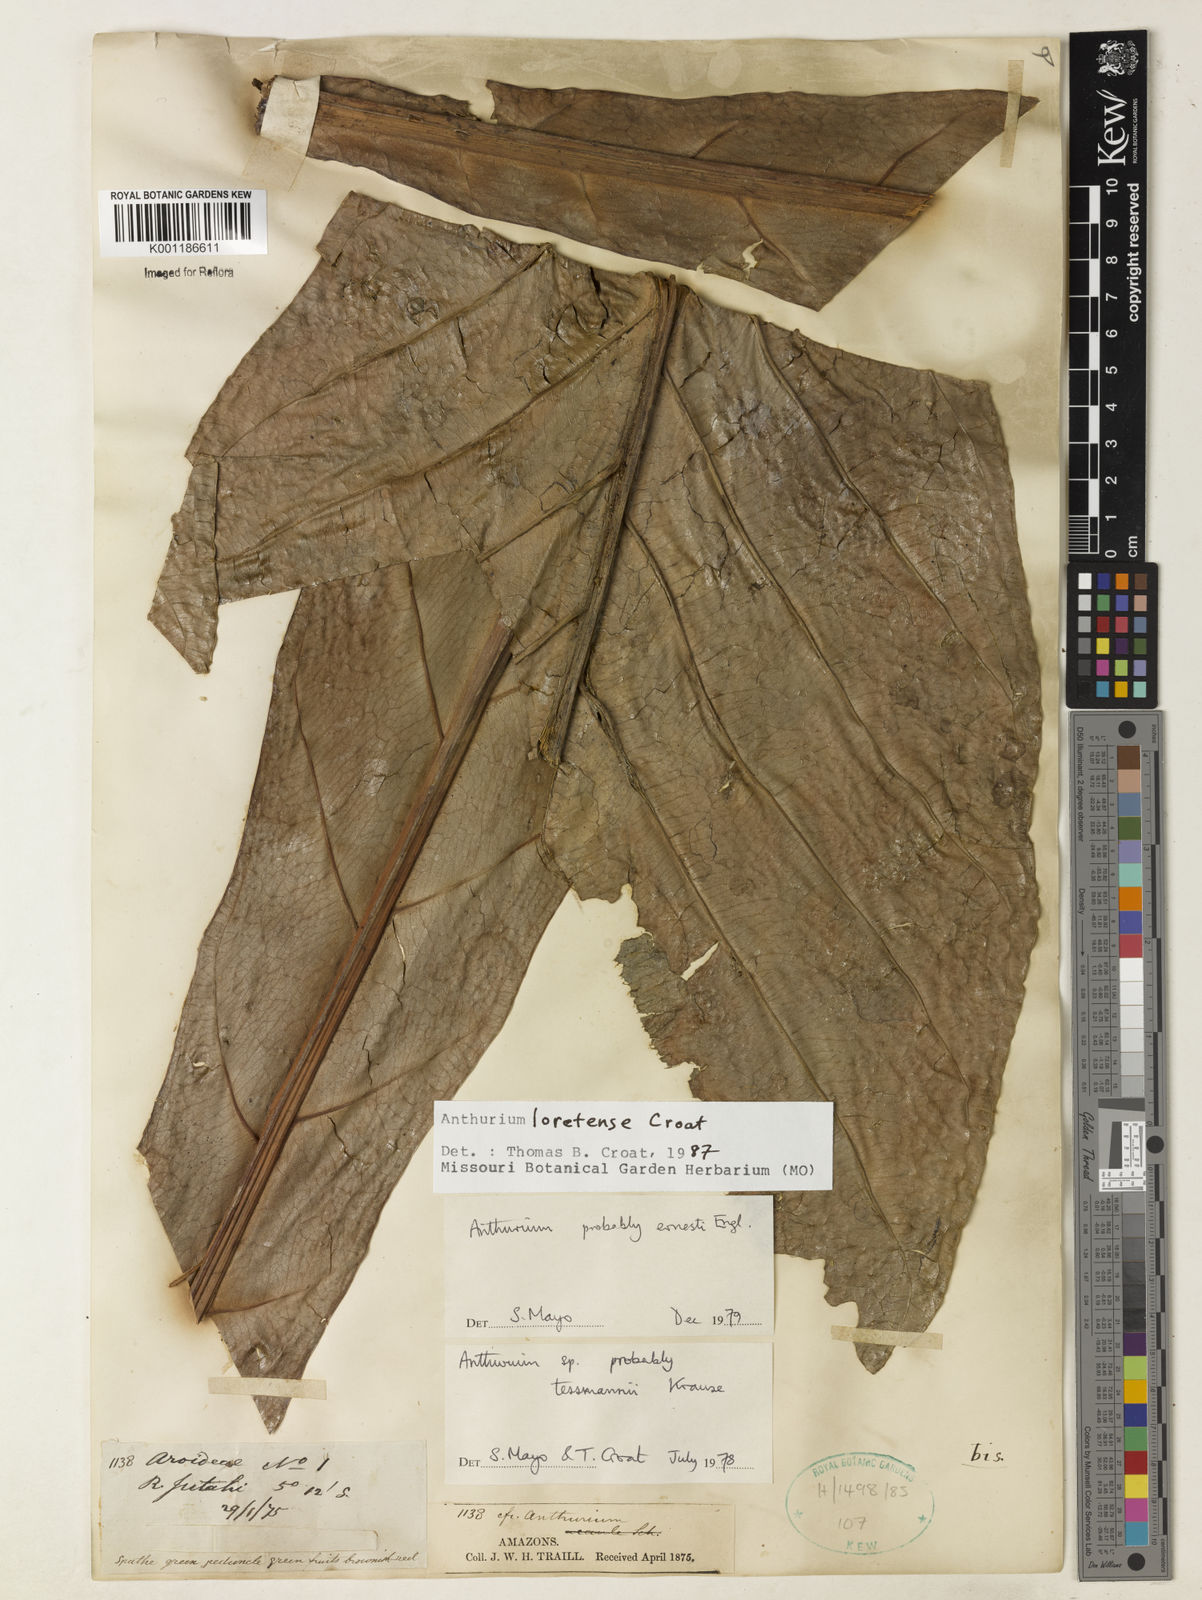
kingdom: Plantae
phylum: Tracheophyta
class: Liliopsida
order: Alismatales
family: Araceae
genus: Anthurium
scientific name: Anthurium loretense
